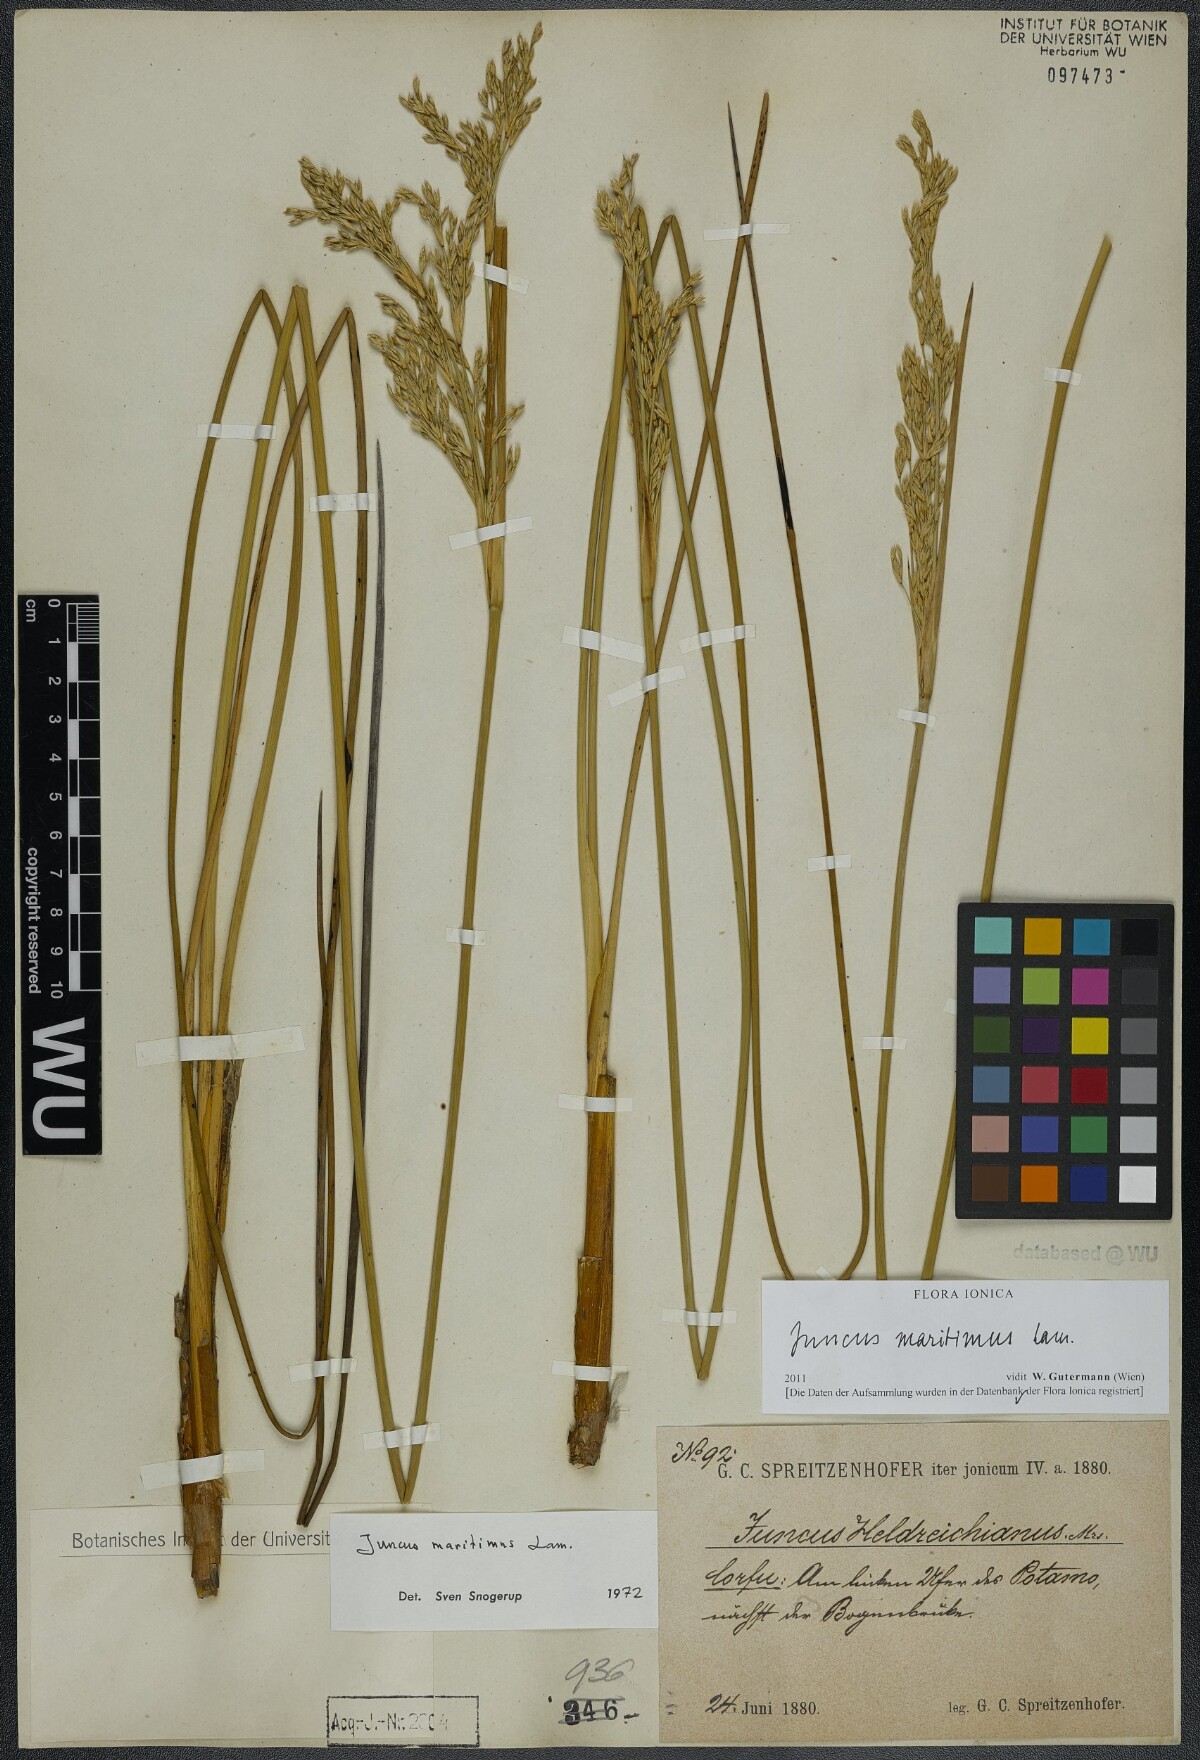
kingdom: Plantae
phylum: Tracheophyta
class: Liliopsida
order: Poales
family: Juncaceae
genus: Juncus
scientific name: Juncus maritimus
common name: Sea rush
